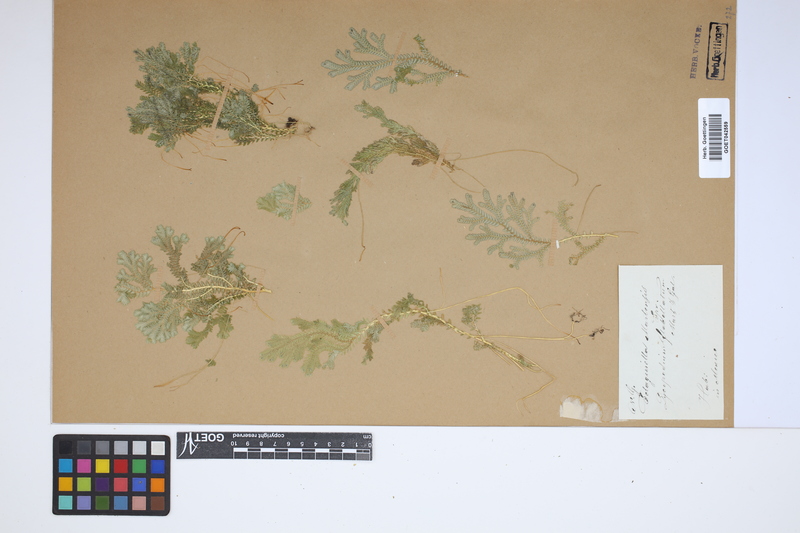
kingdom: Plantae
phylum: Tracheophyta
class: Lycopodiopsida
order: Selaginellales
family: Selaginellaceae
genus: Selaginella
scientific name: Selaginella martensii
